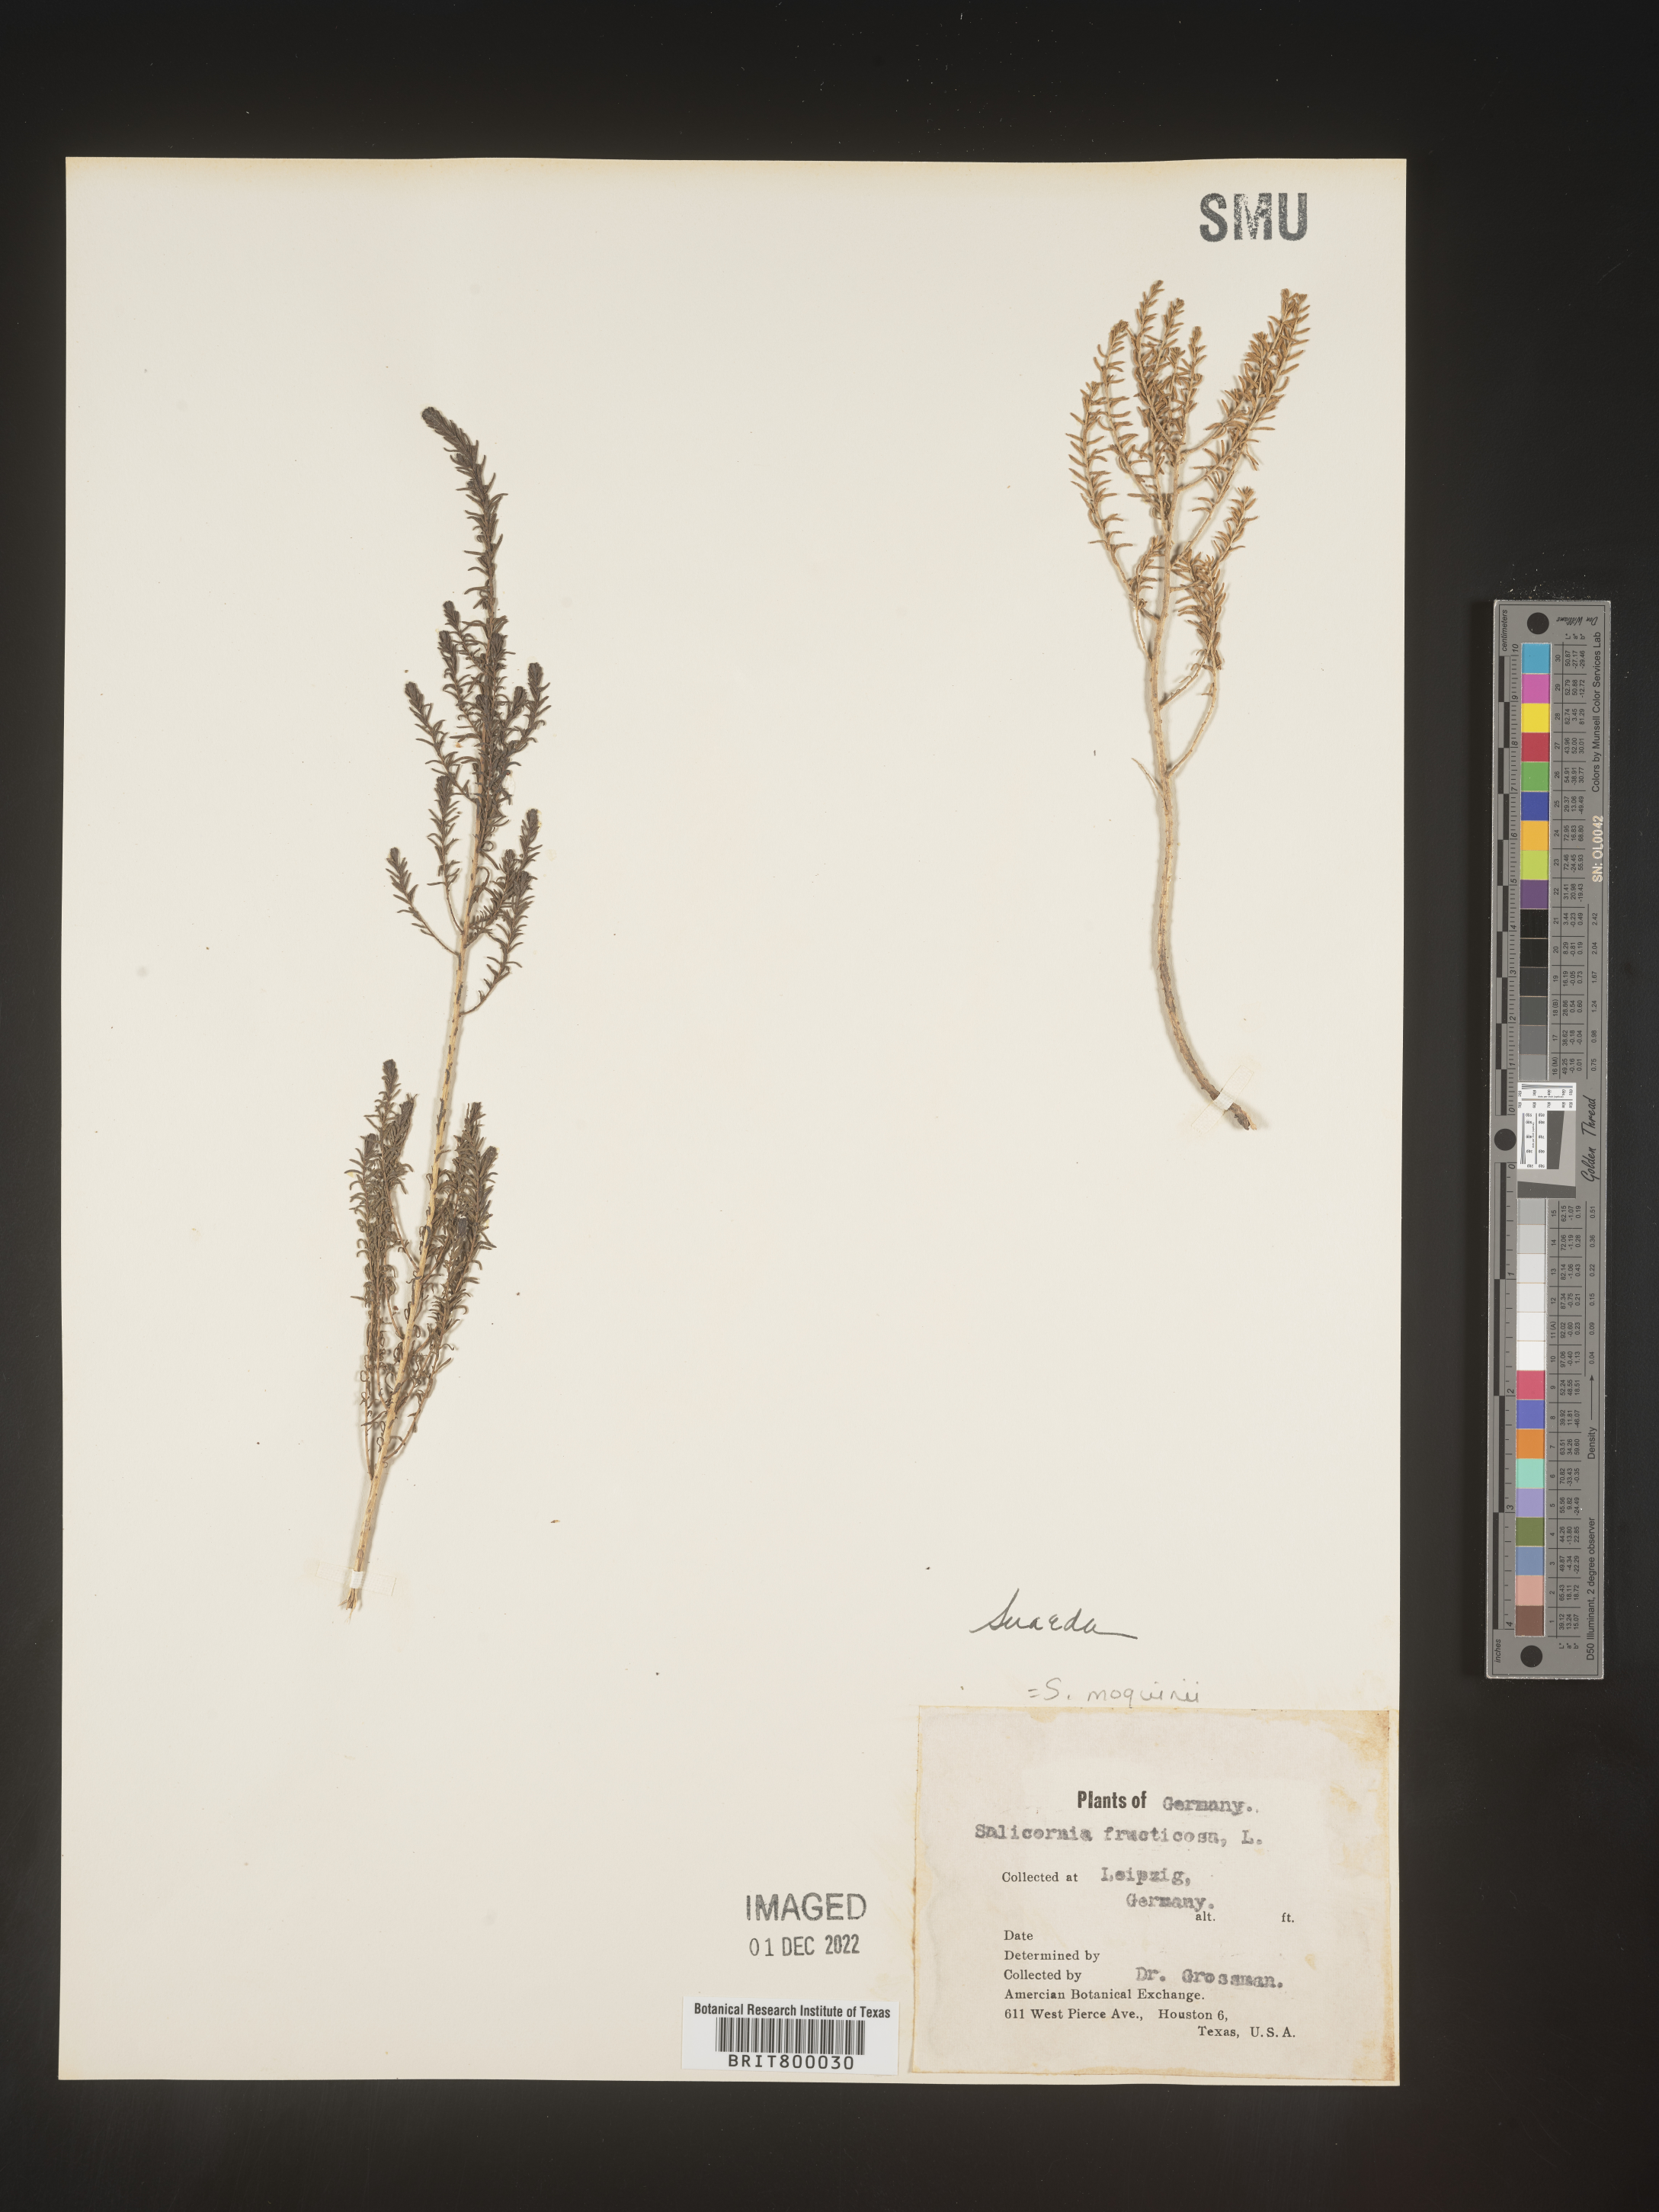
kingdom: Plantae
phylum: Tracheophyta
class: Magnoliopsida
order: Caryophyllales
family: Amaranthaceae
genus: Suaeda
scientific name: Suaeda
